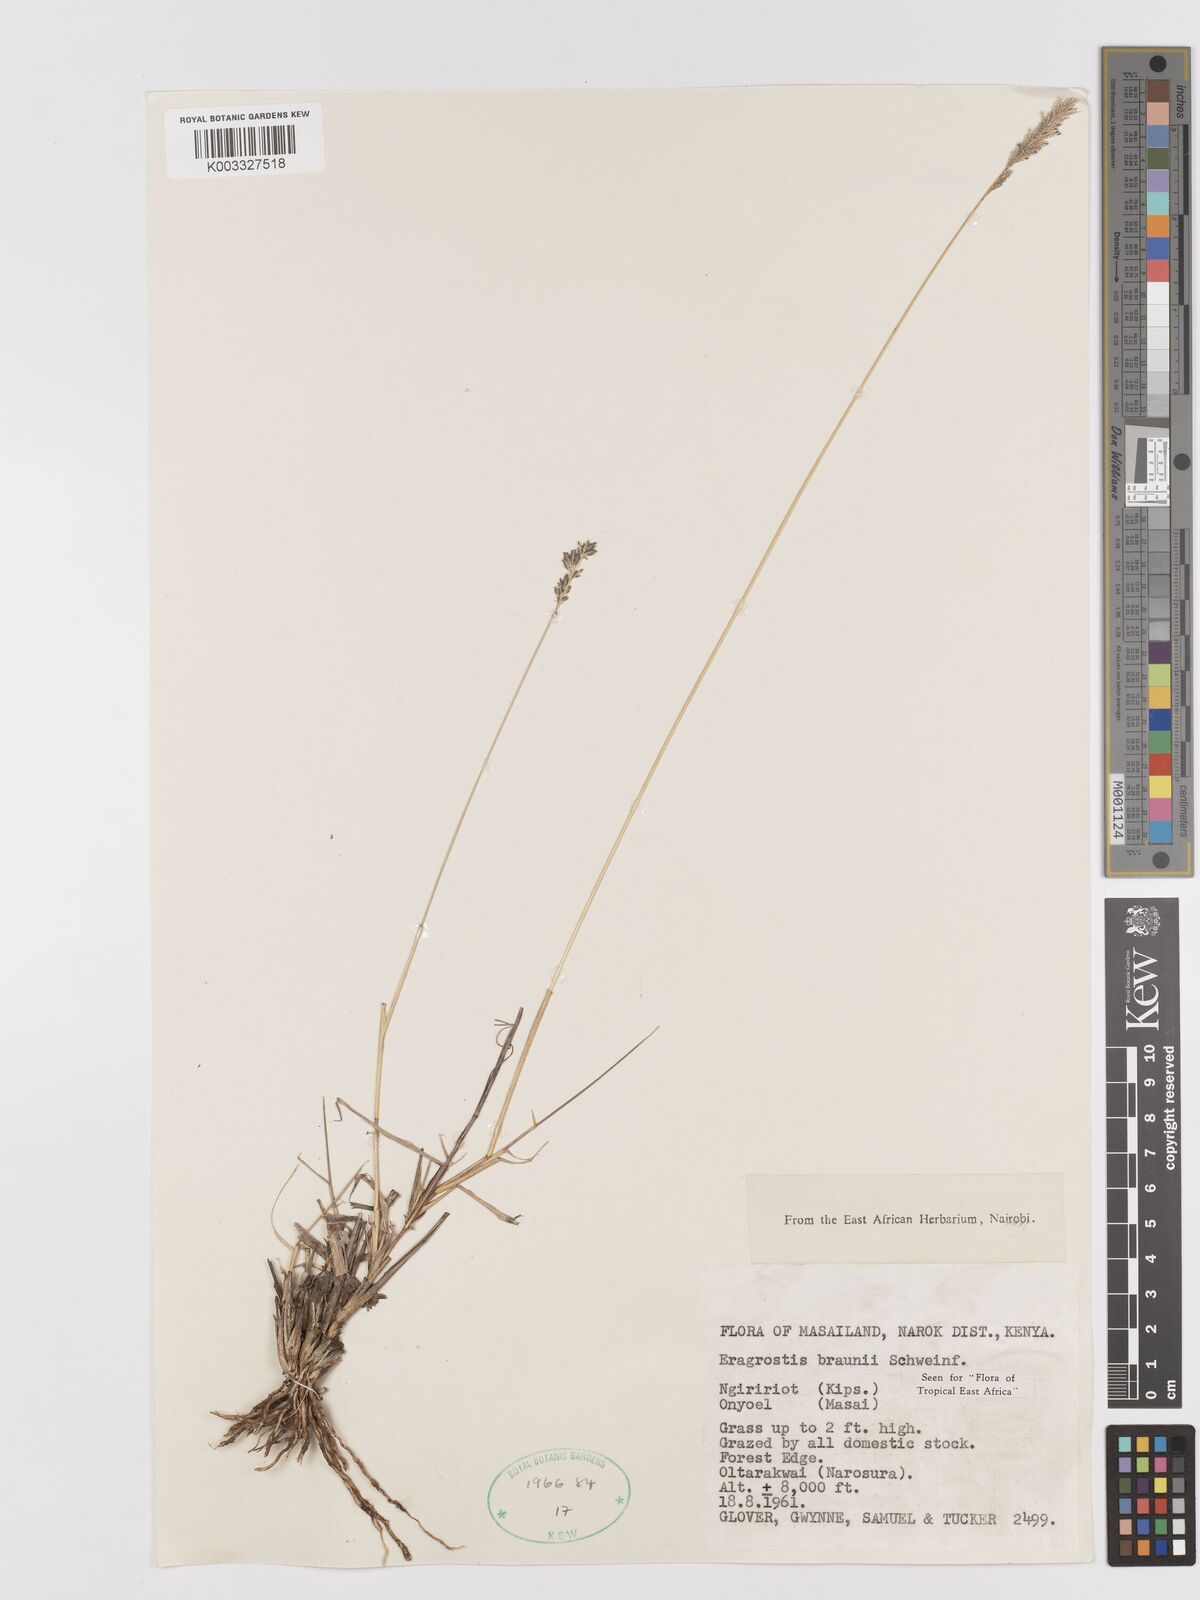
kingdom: Plantae
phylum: Tracheophyta
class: Liliopsida
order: Poales
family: Poaceae
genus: Eragrostis
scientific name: Eragrostis braunii
